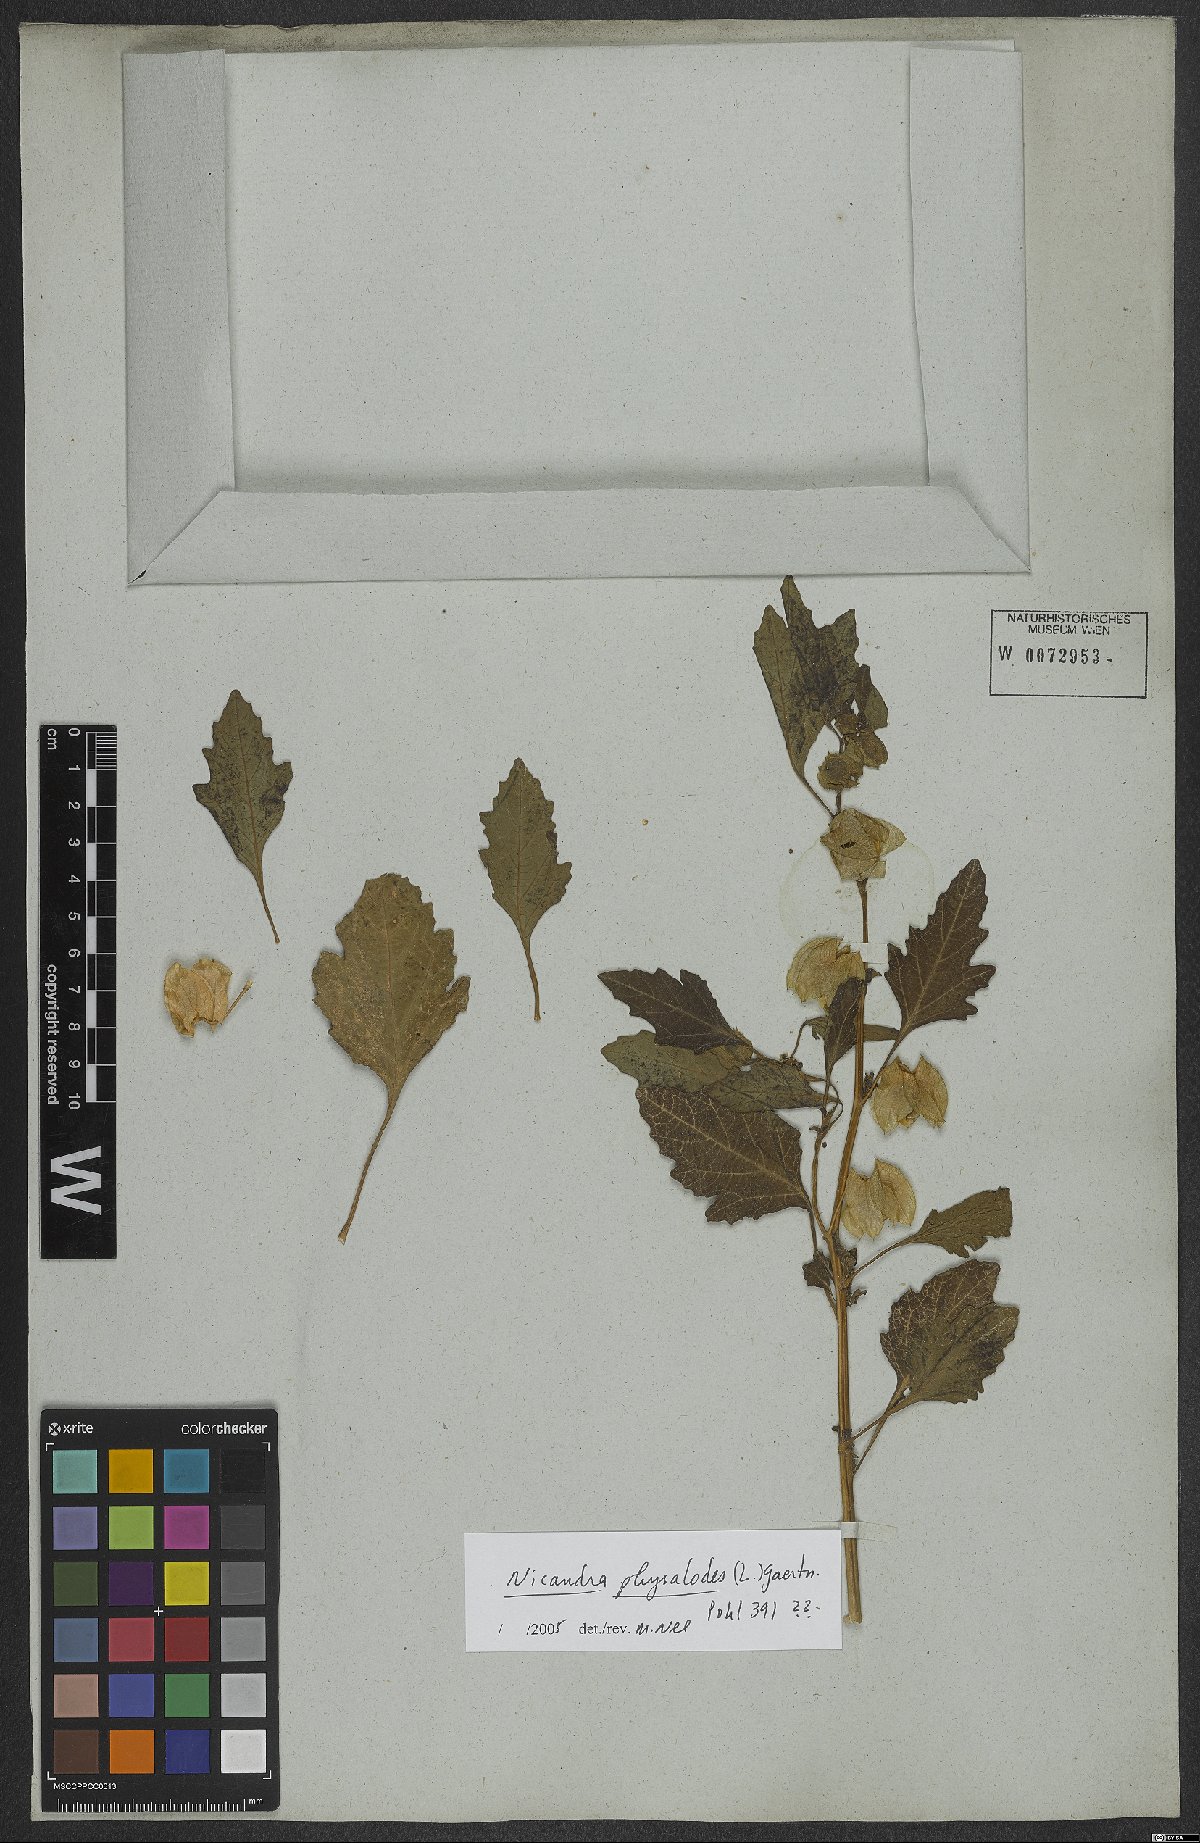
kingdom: Plantae
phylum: Tracheophyta
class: Magnoliopsida
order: Solanales
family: Solanaceae
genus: Nicandra
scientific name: Nicandra physalodes
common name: Apple-of-peru
